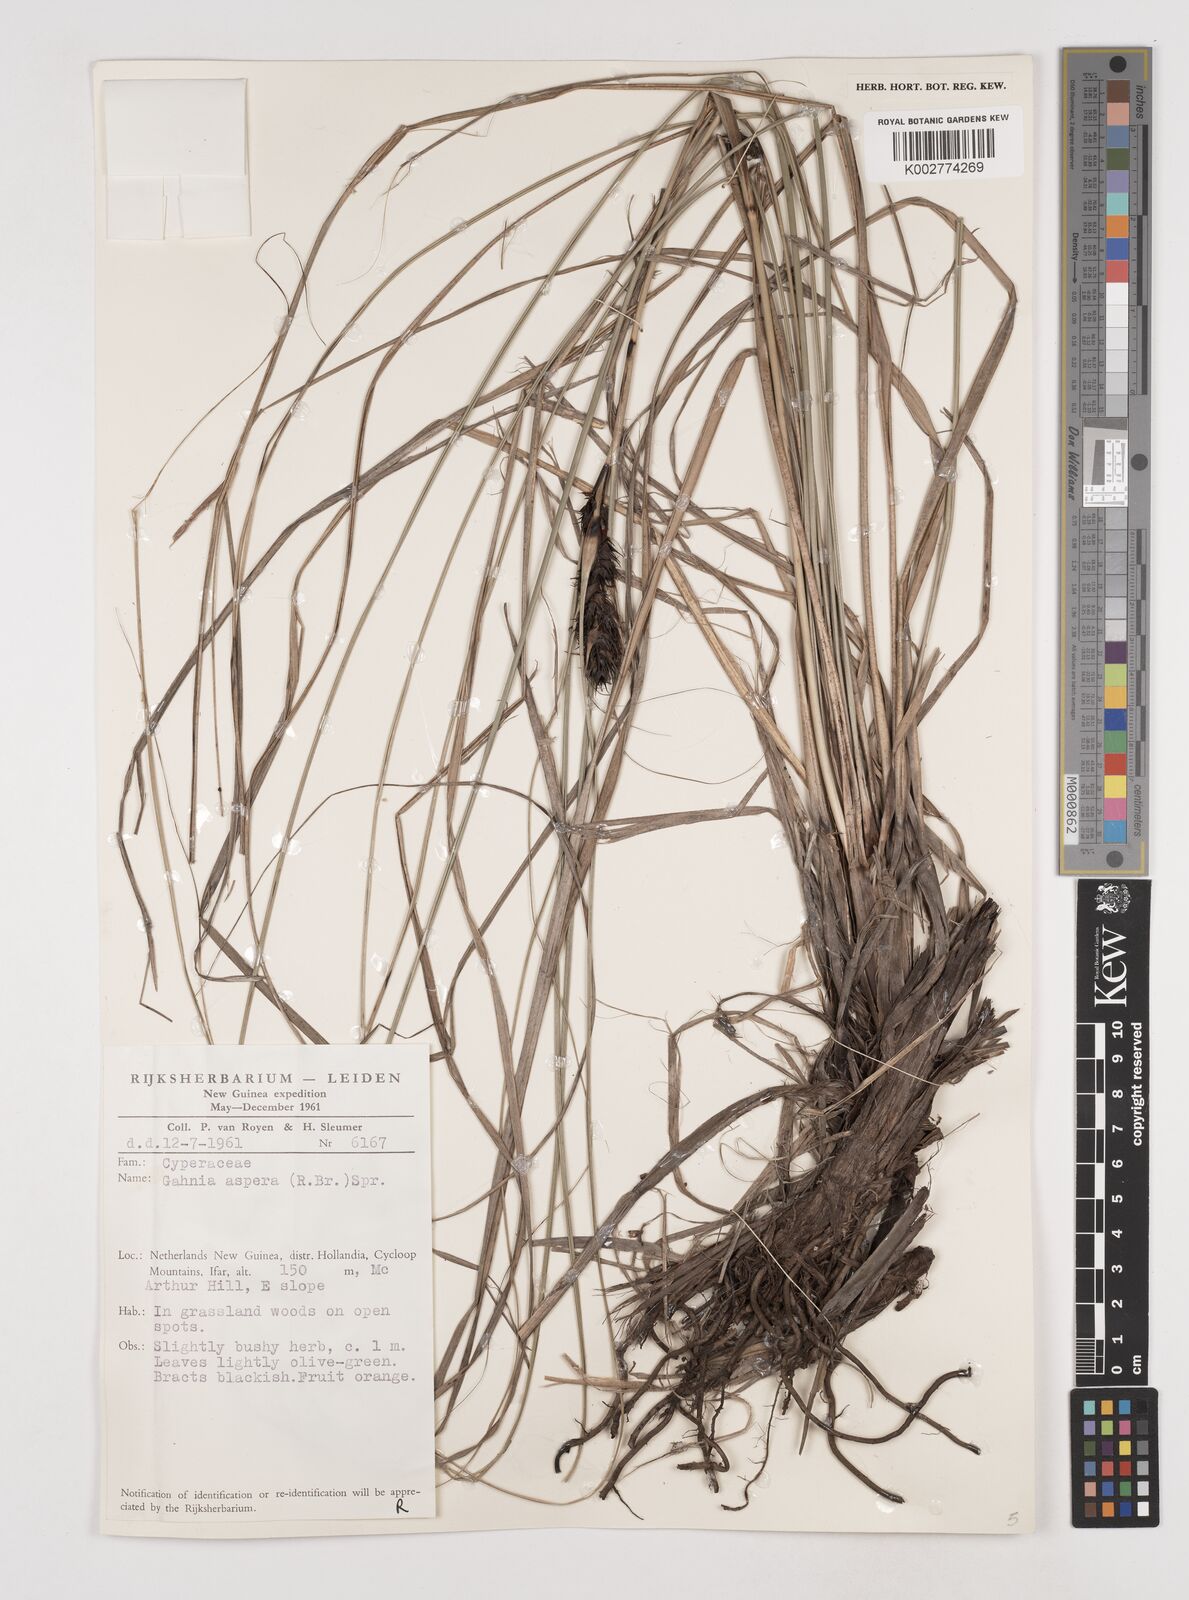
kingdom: Plantae
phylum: Tracheophyta
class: Liliopsida
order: Poales
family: Cyperaceae
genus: Gahnia
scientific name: Gahnia aspera
